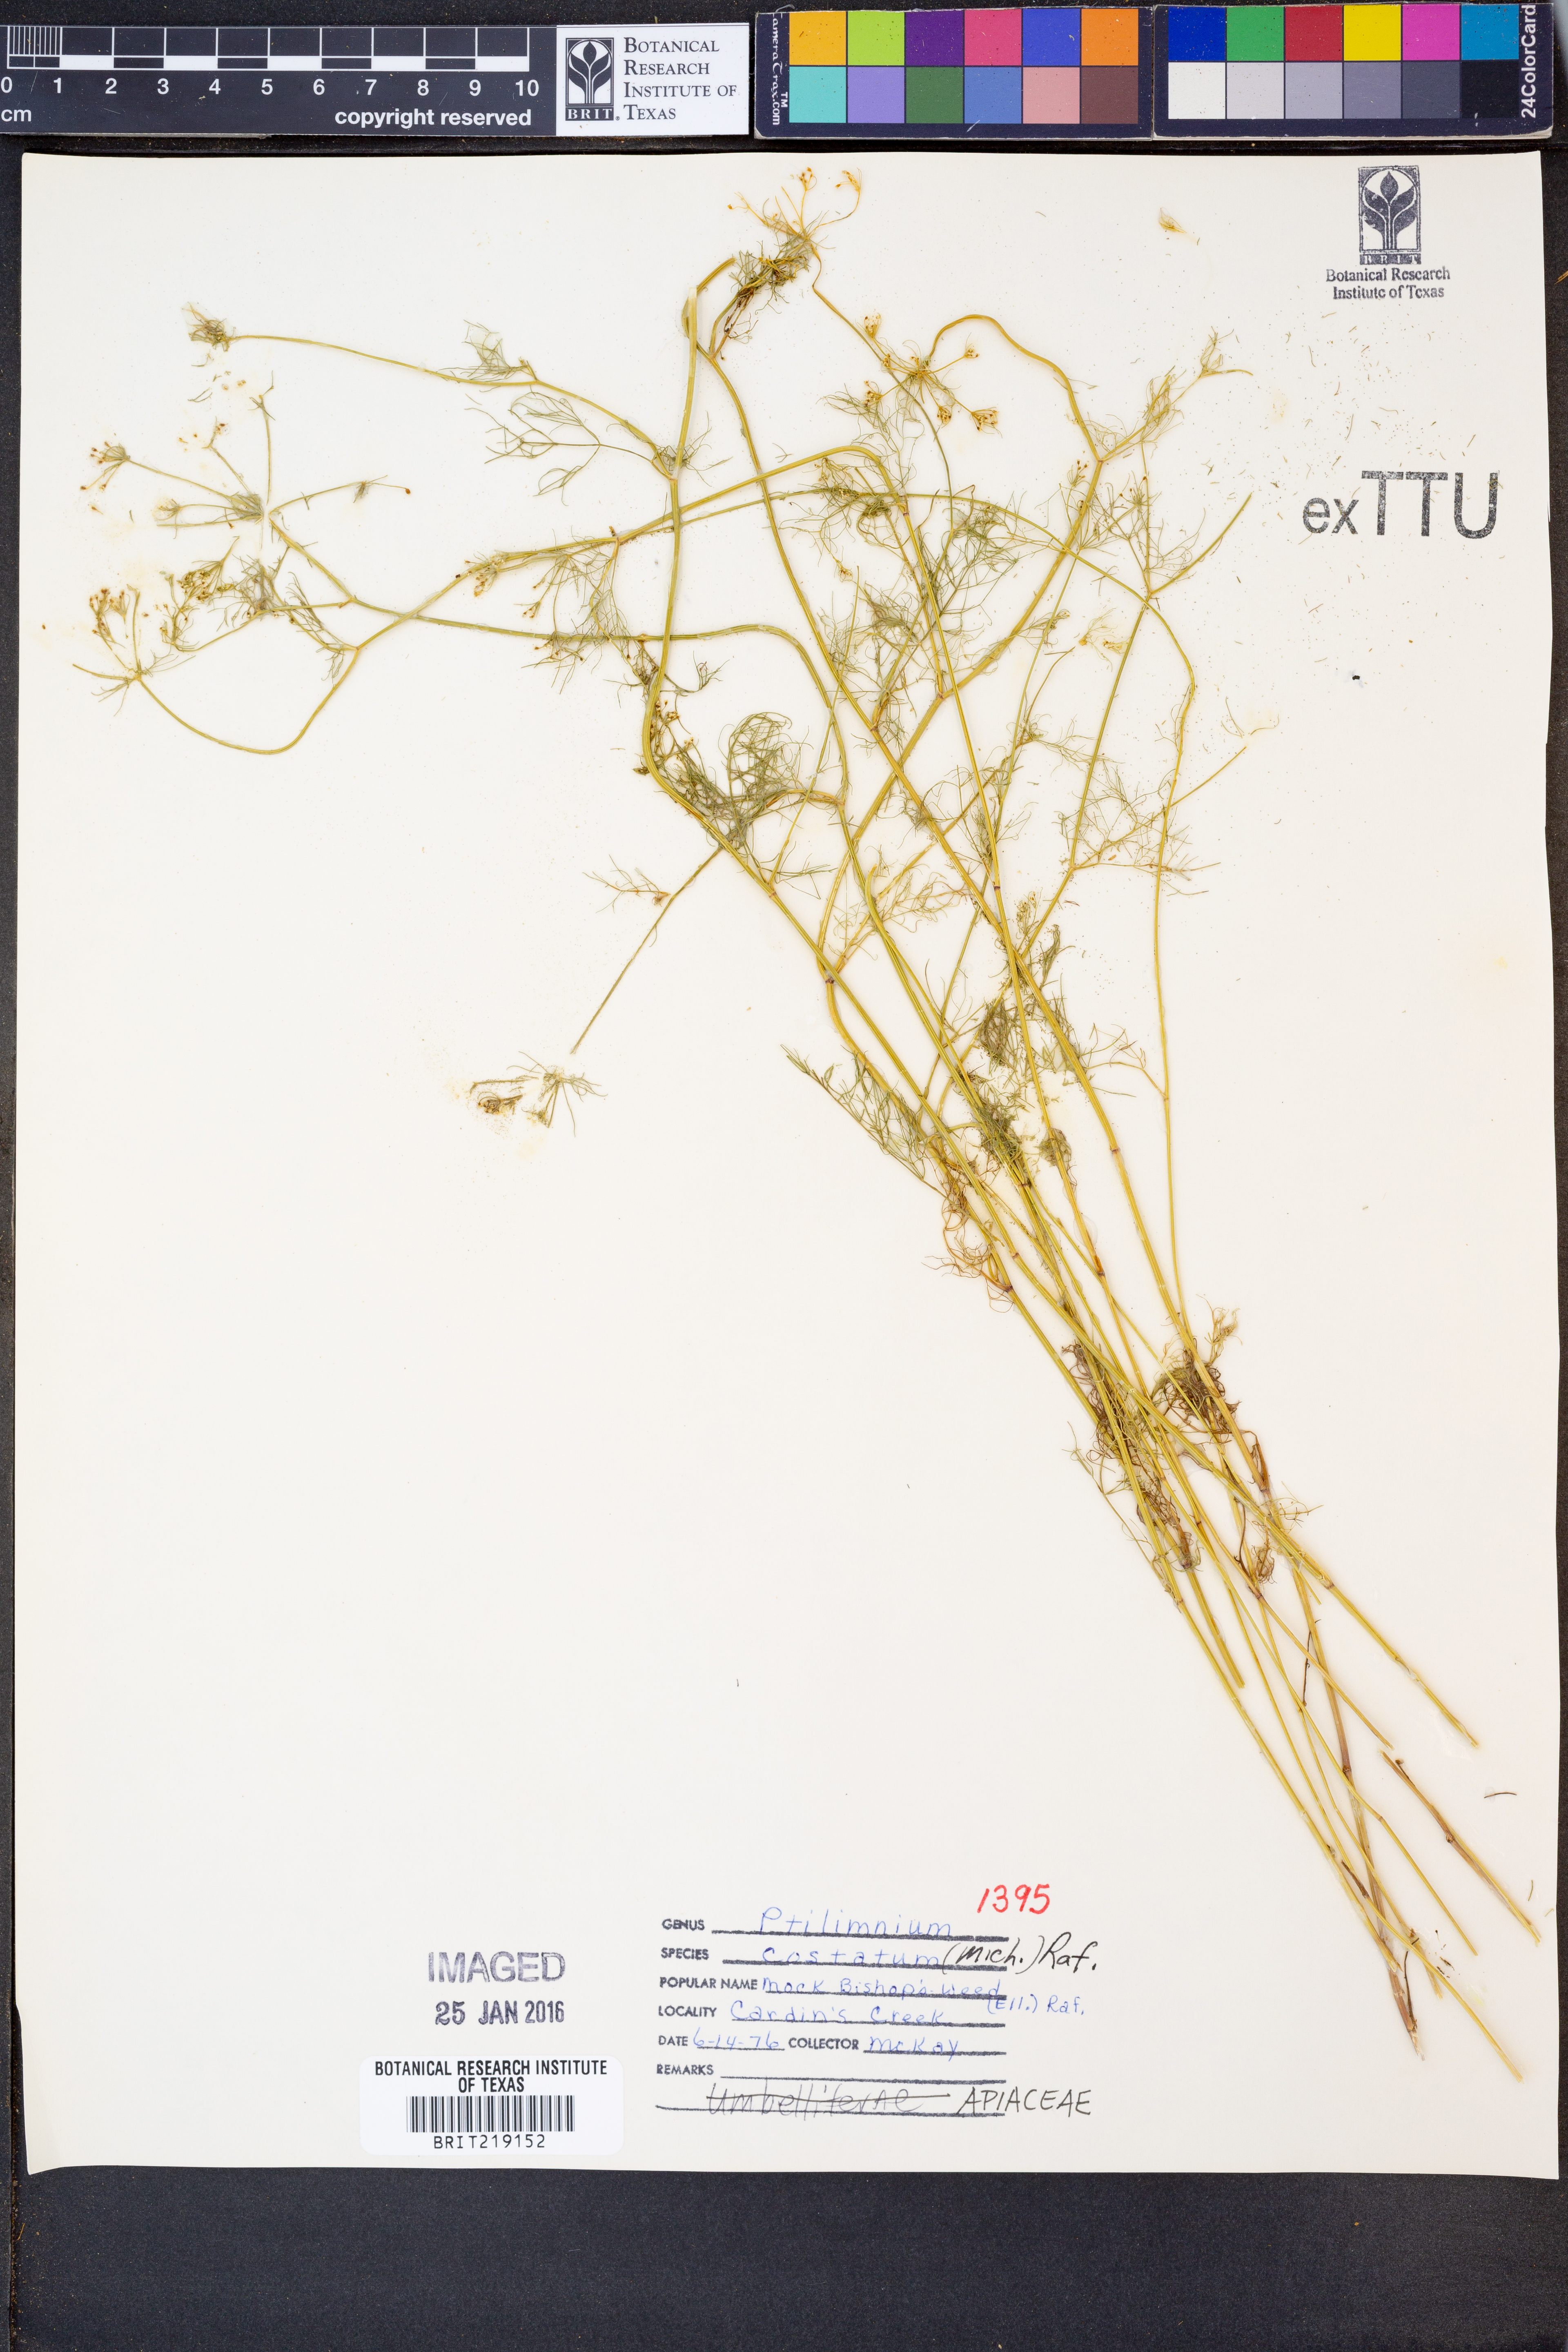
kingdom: Plantae
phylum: Tracheophyta
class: Magnoliopsida
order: Apiales
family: Apiaceae
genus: Ptilimnium
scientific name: Ptilimnium costatum
